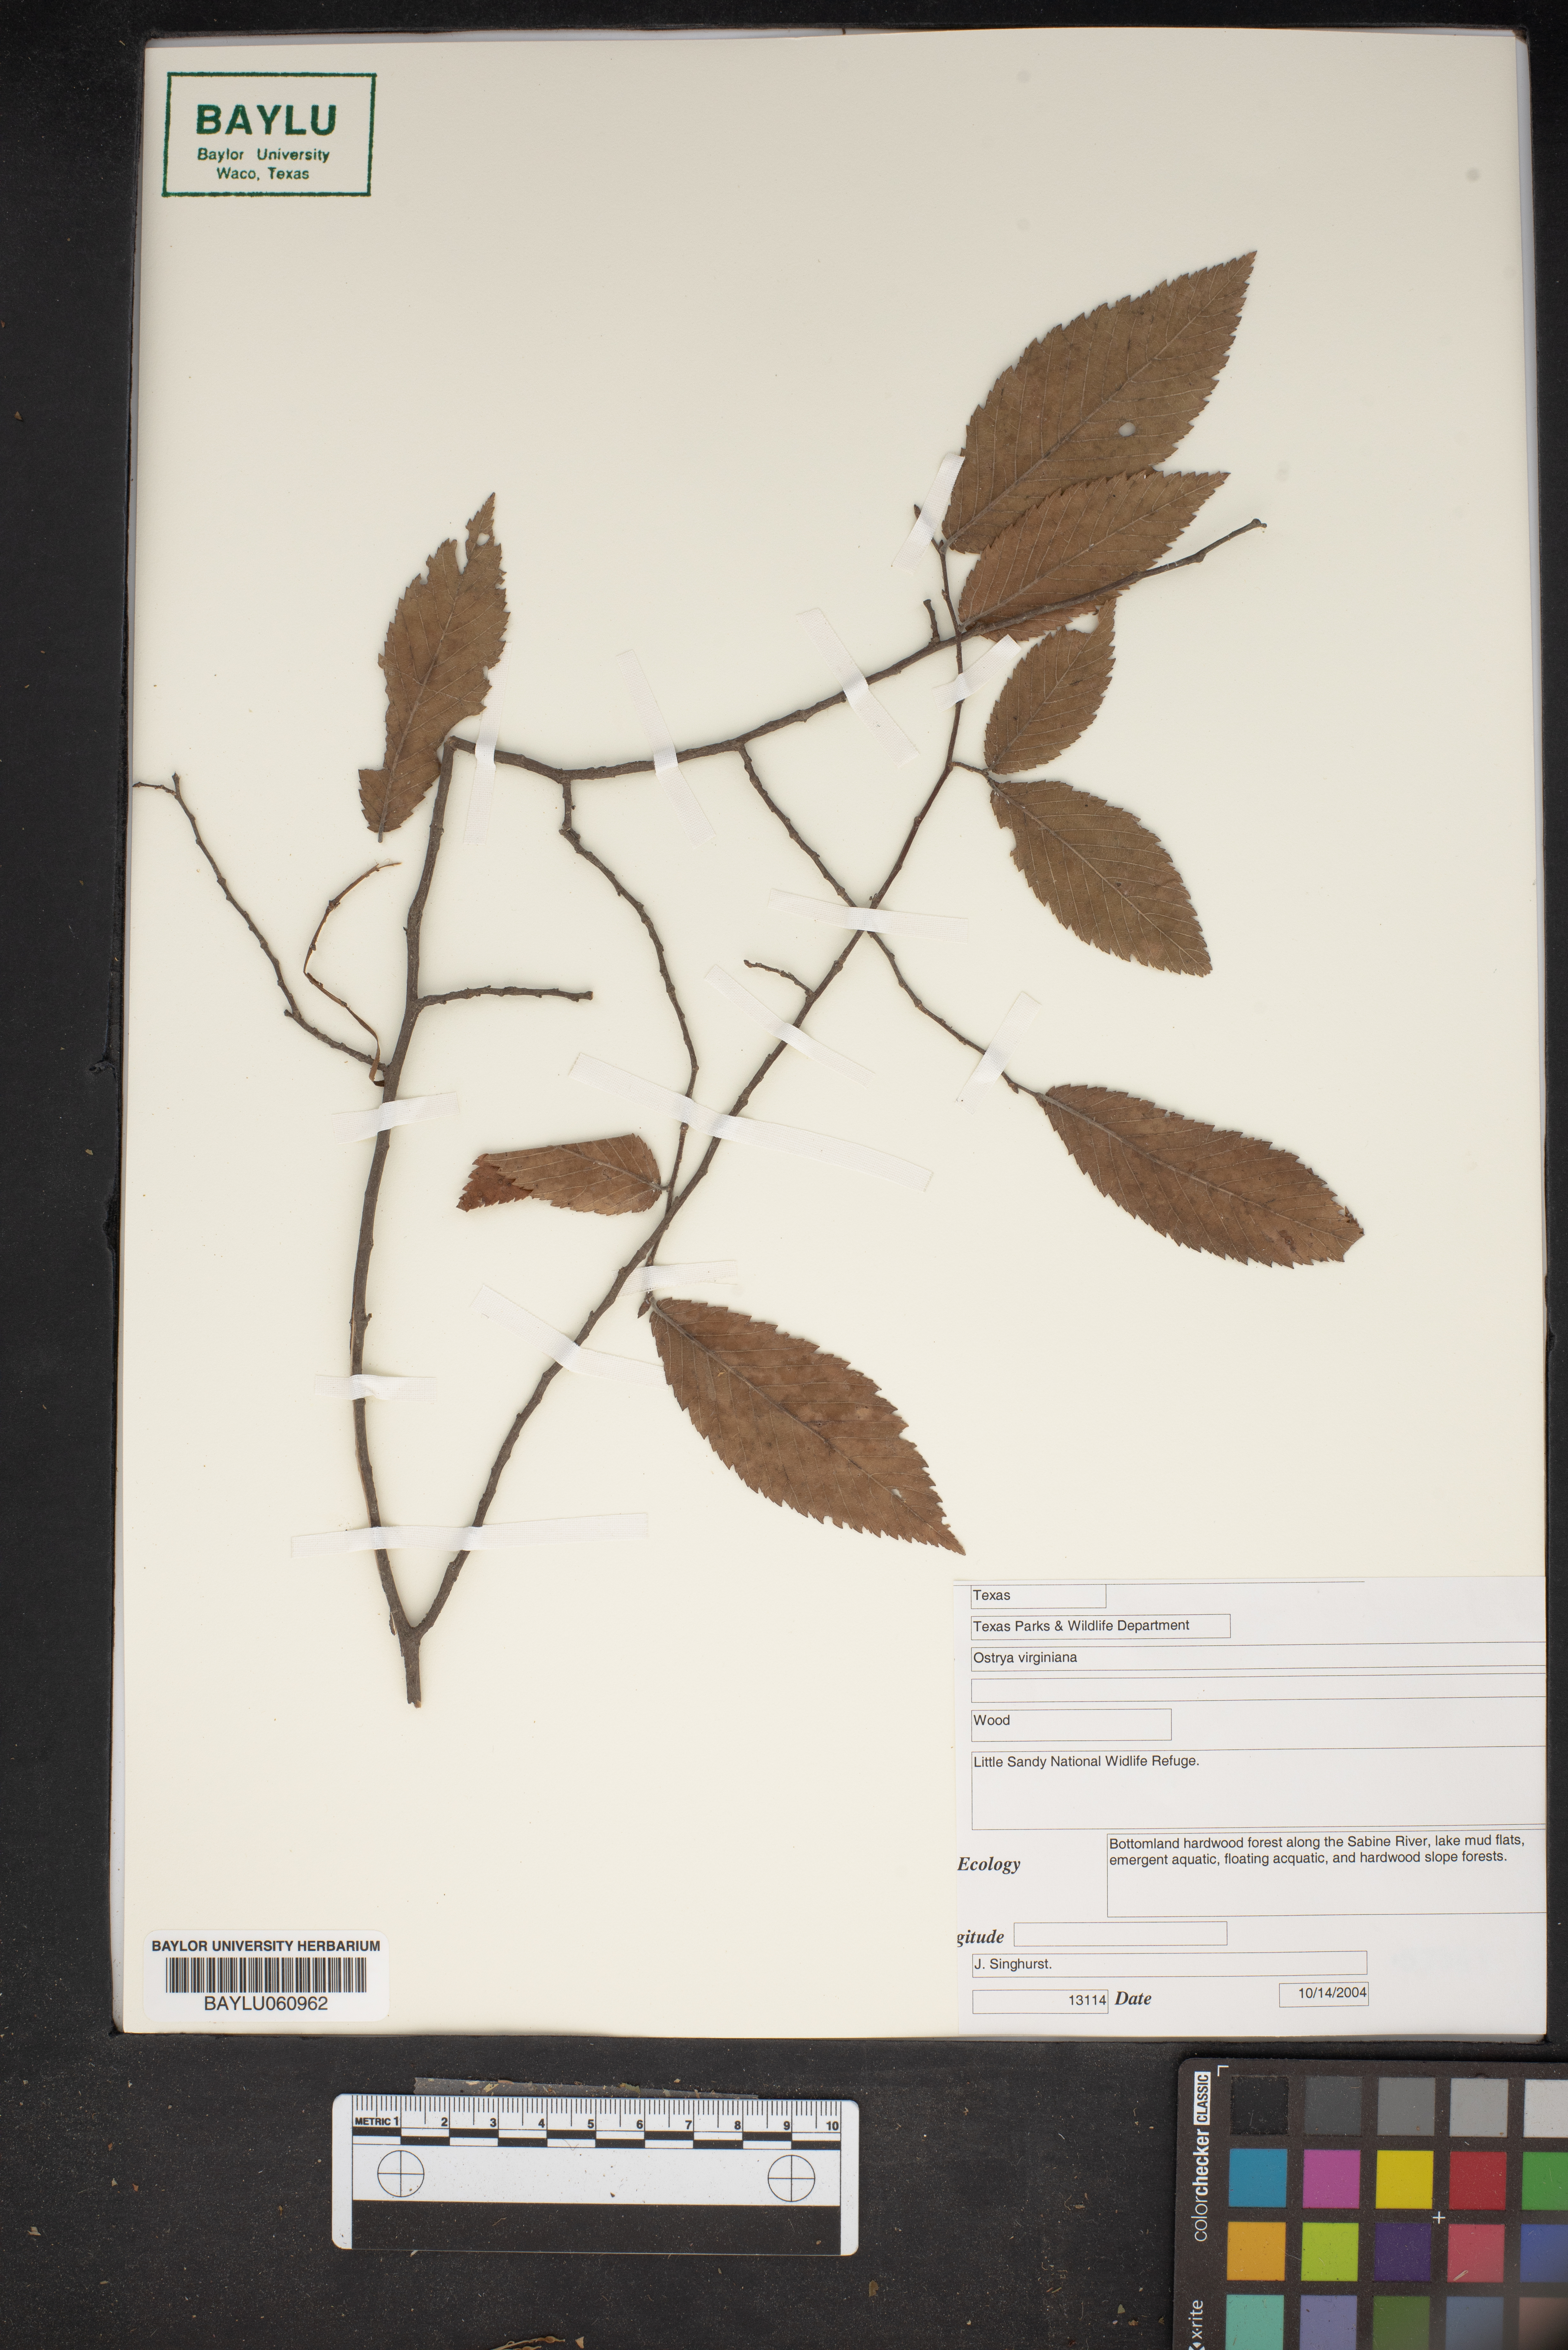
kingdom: Plantae
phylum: Tracheophyta
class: Magnoliopsida
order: Fagales
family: Betulaceae
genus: Ostrya
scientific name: Ostrya virginiana
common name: Ironwood
